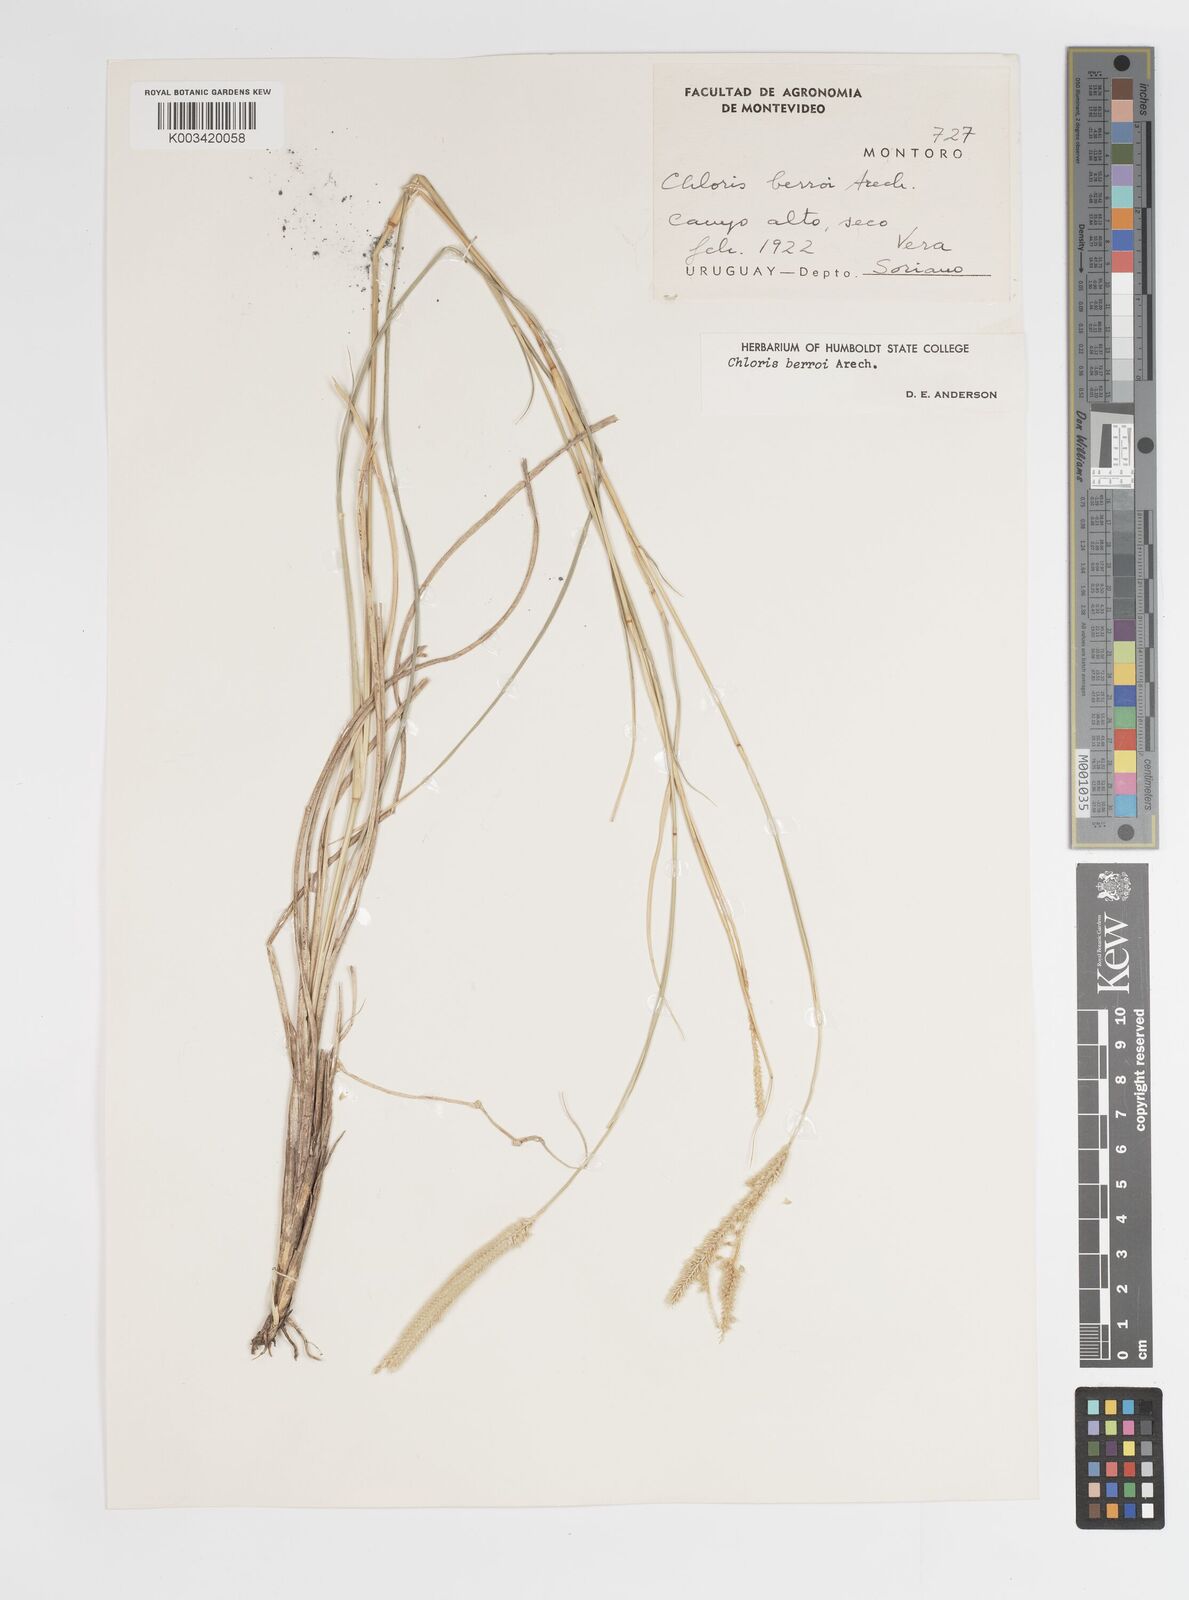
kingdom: Plantae
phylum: Tracheophyta
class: Liliopsida
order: Poales
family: Poaceae
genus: Stapfochloa
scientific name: Stapfochloa berroi
